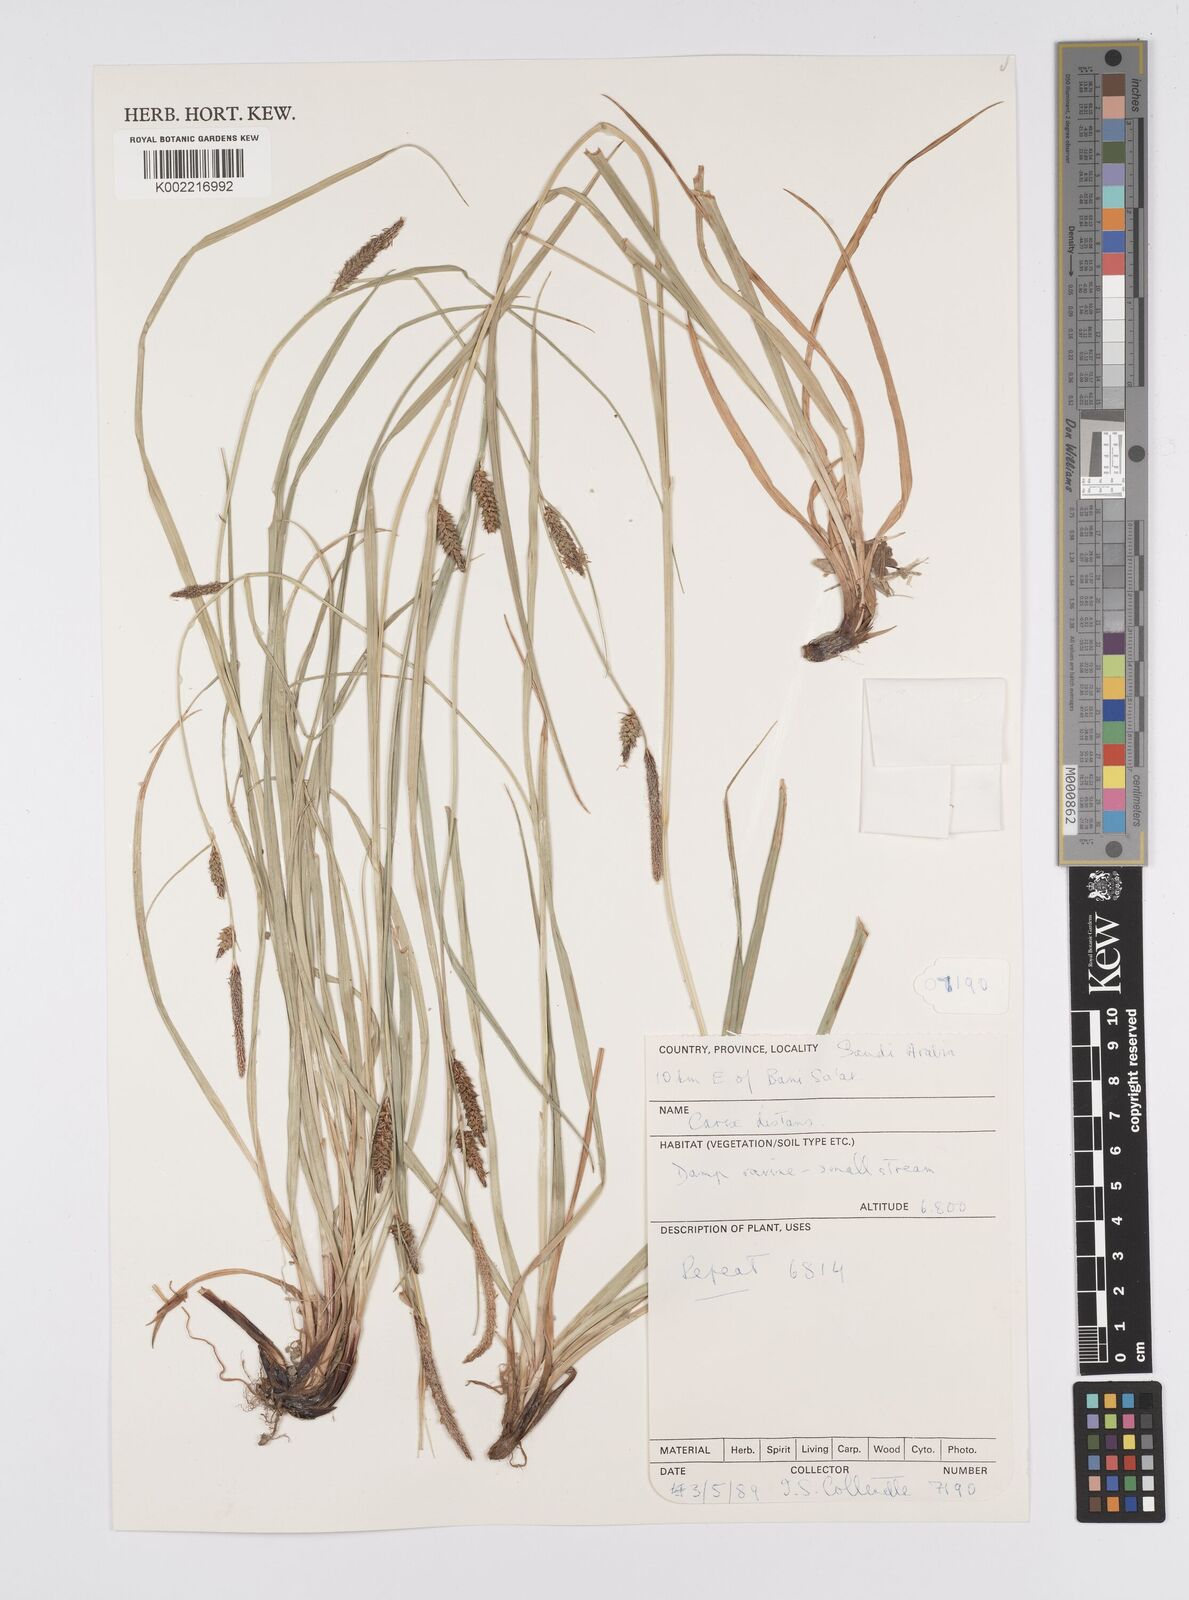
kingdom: Plantae
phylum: Tracheophyta
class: Liliopsida
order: Poales
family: Cyperaceae
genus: Carex
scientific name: Carex distans
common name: Distant sedge
